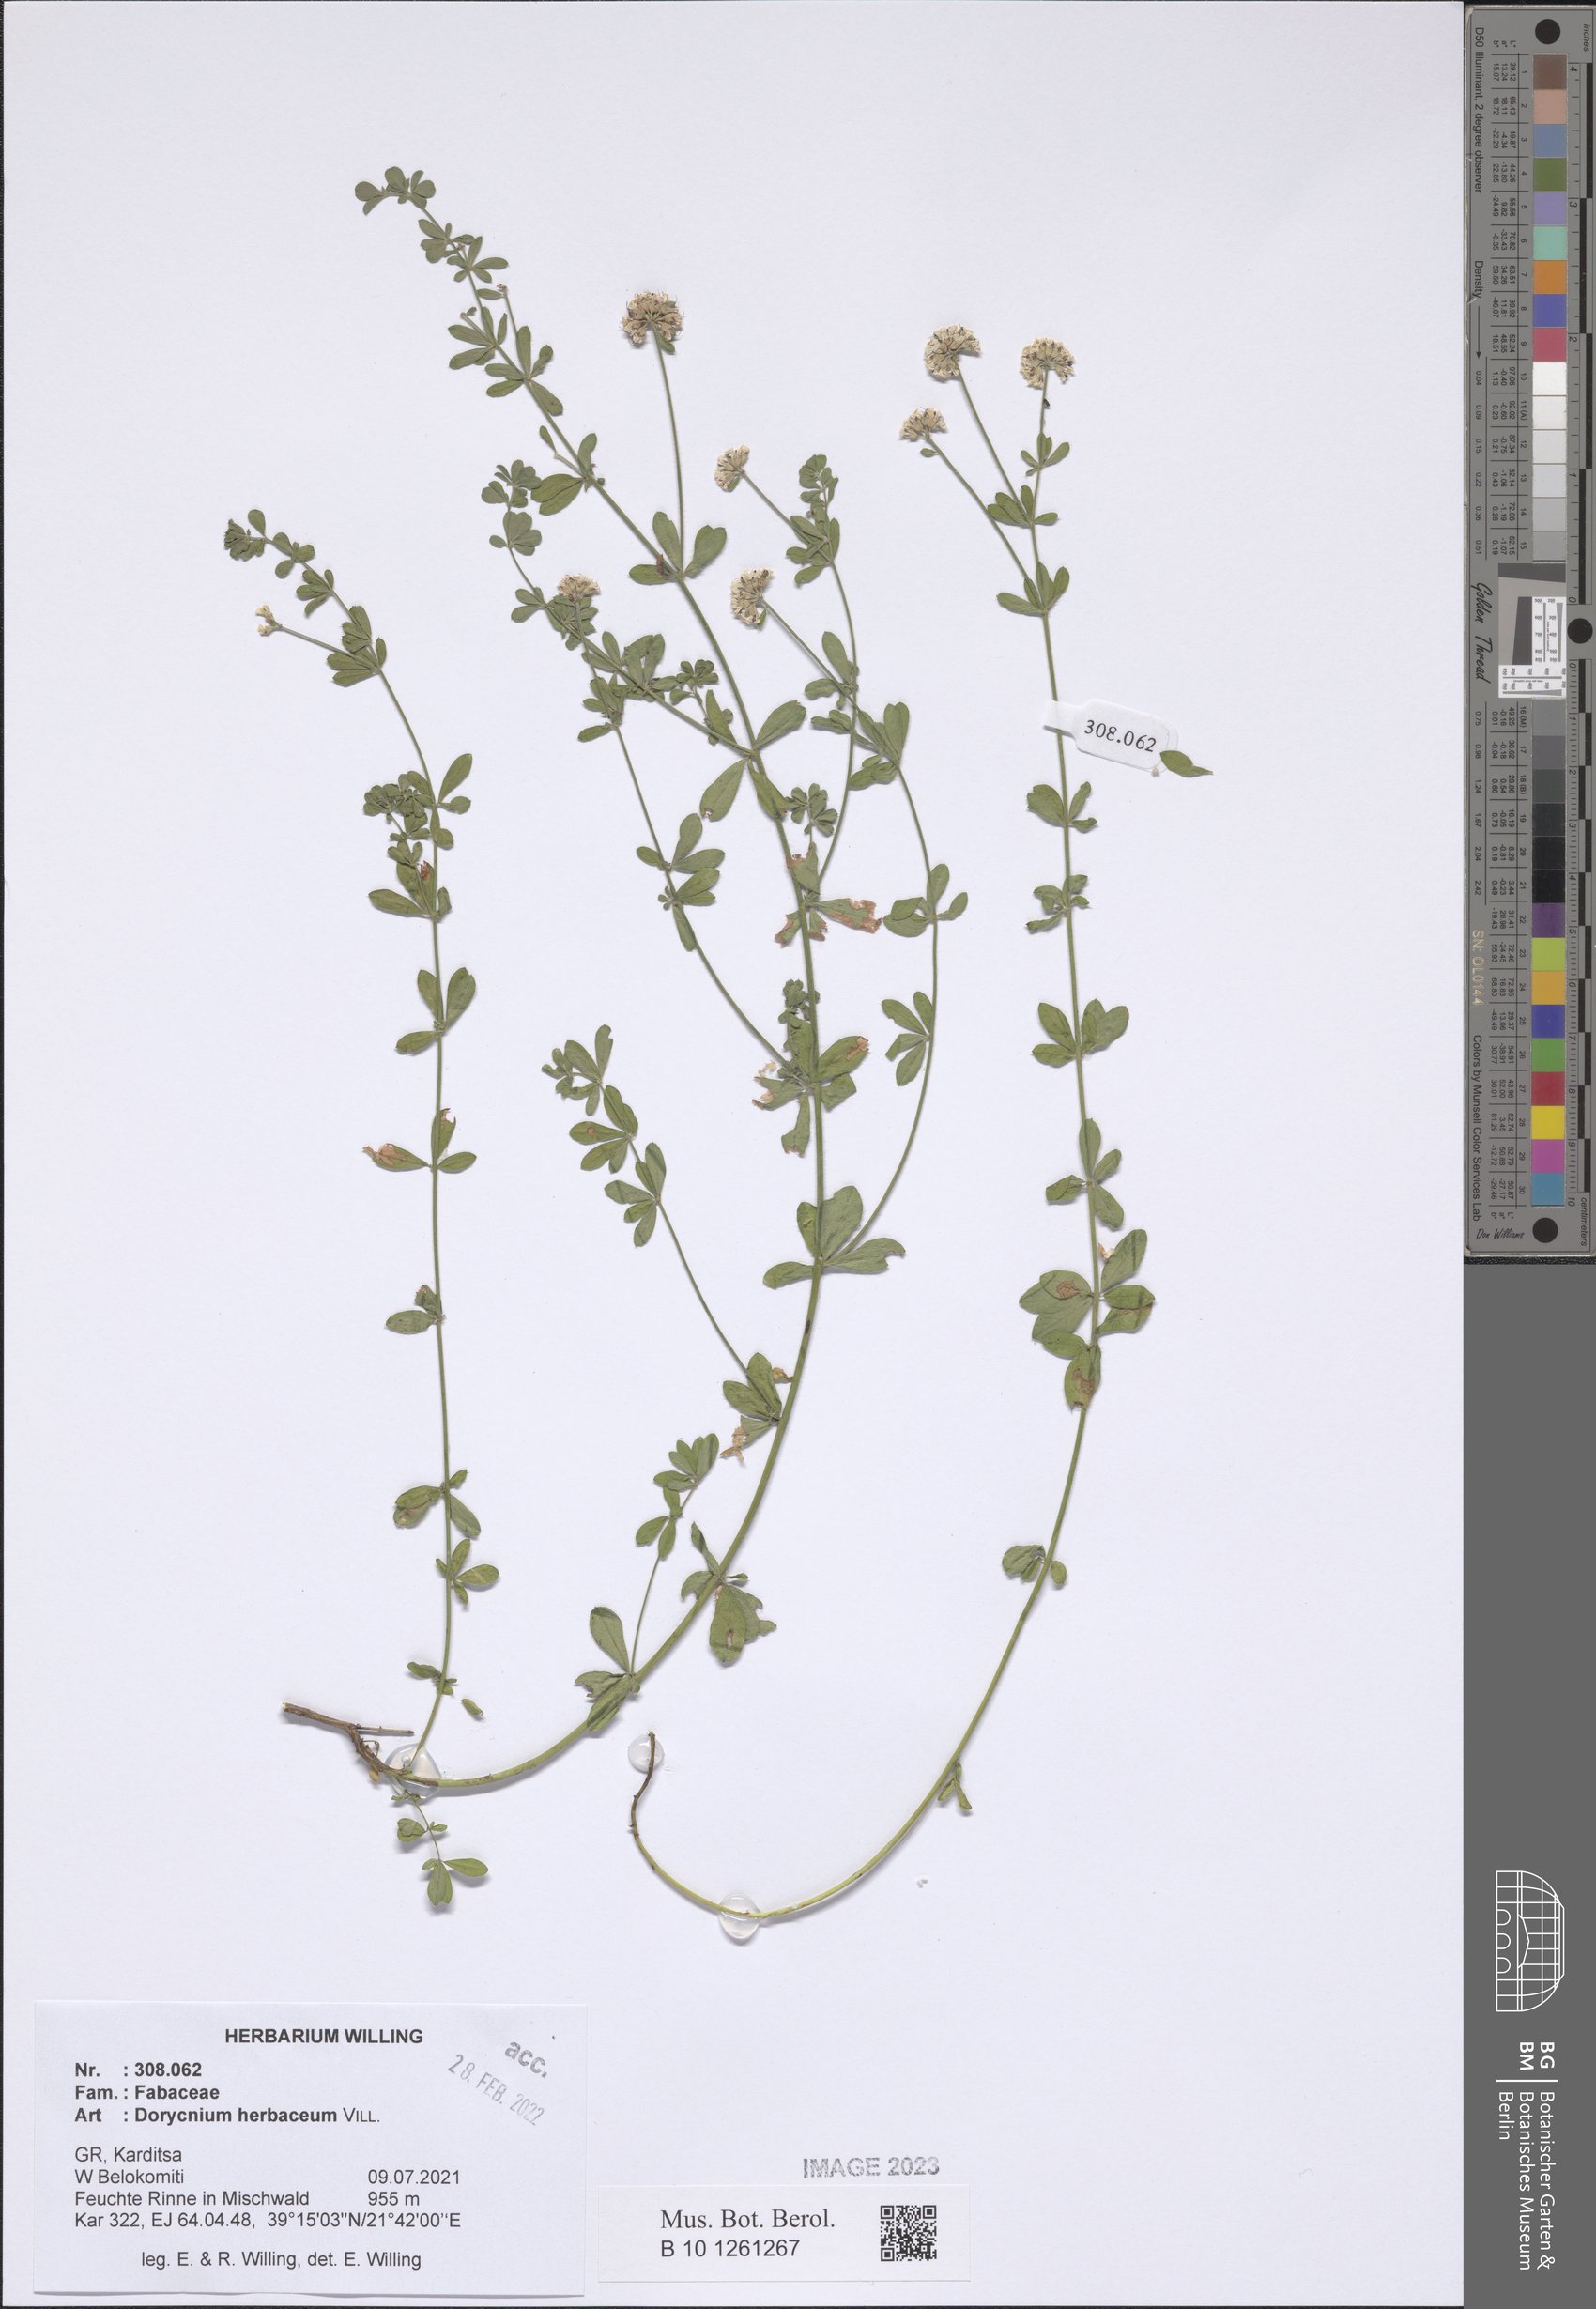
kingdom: Plantae
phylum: Tracheophyta
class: Magnoliopsida
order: Fabales
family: Fabaceae
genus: Lotus
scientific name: Lotus herbaceus
